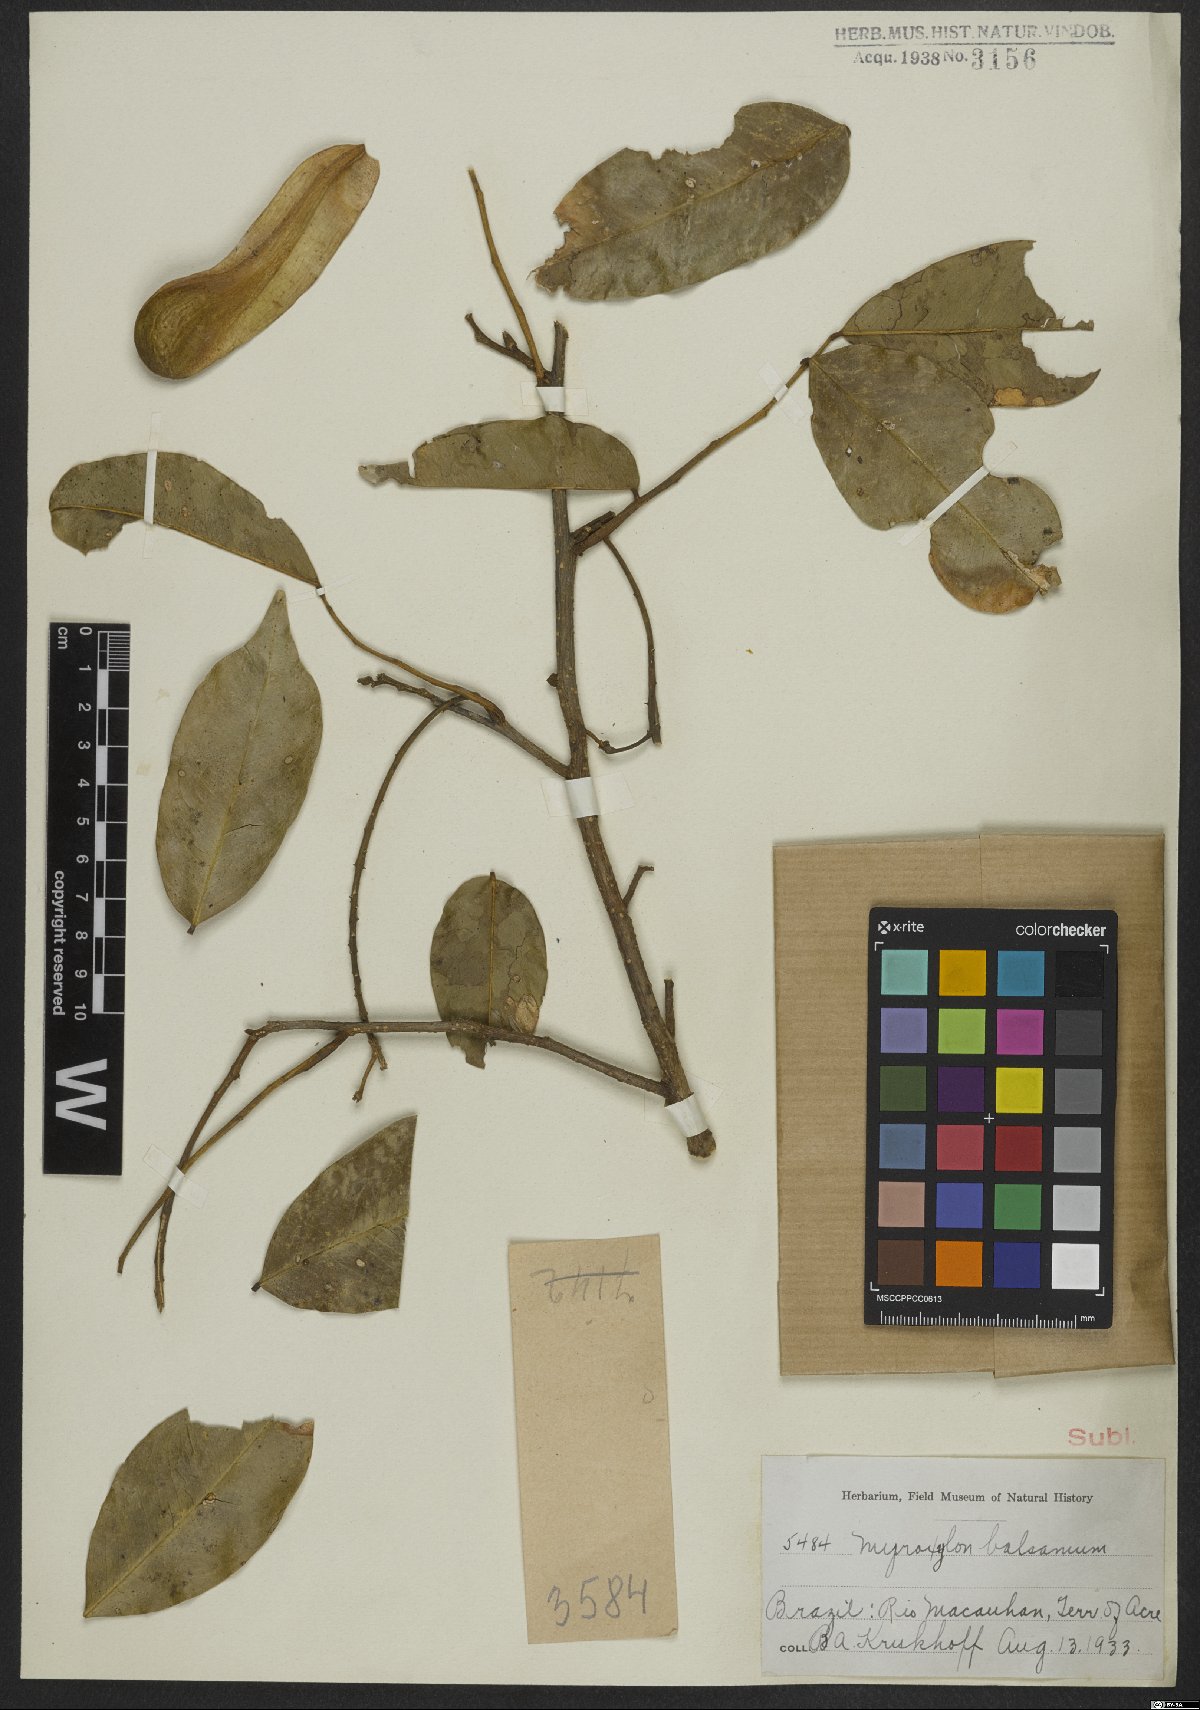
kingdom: Plantae
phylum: Tracheophyta
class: Magnoliopsida
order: Fabales
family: Fabaceae
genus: Myroxylon
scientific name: Myroxylon balsamum
